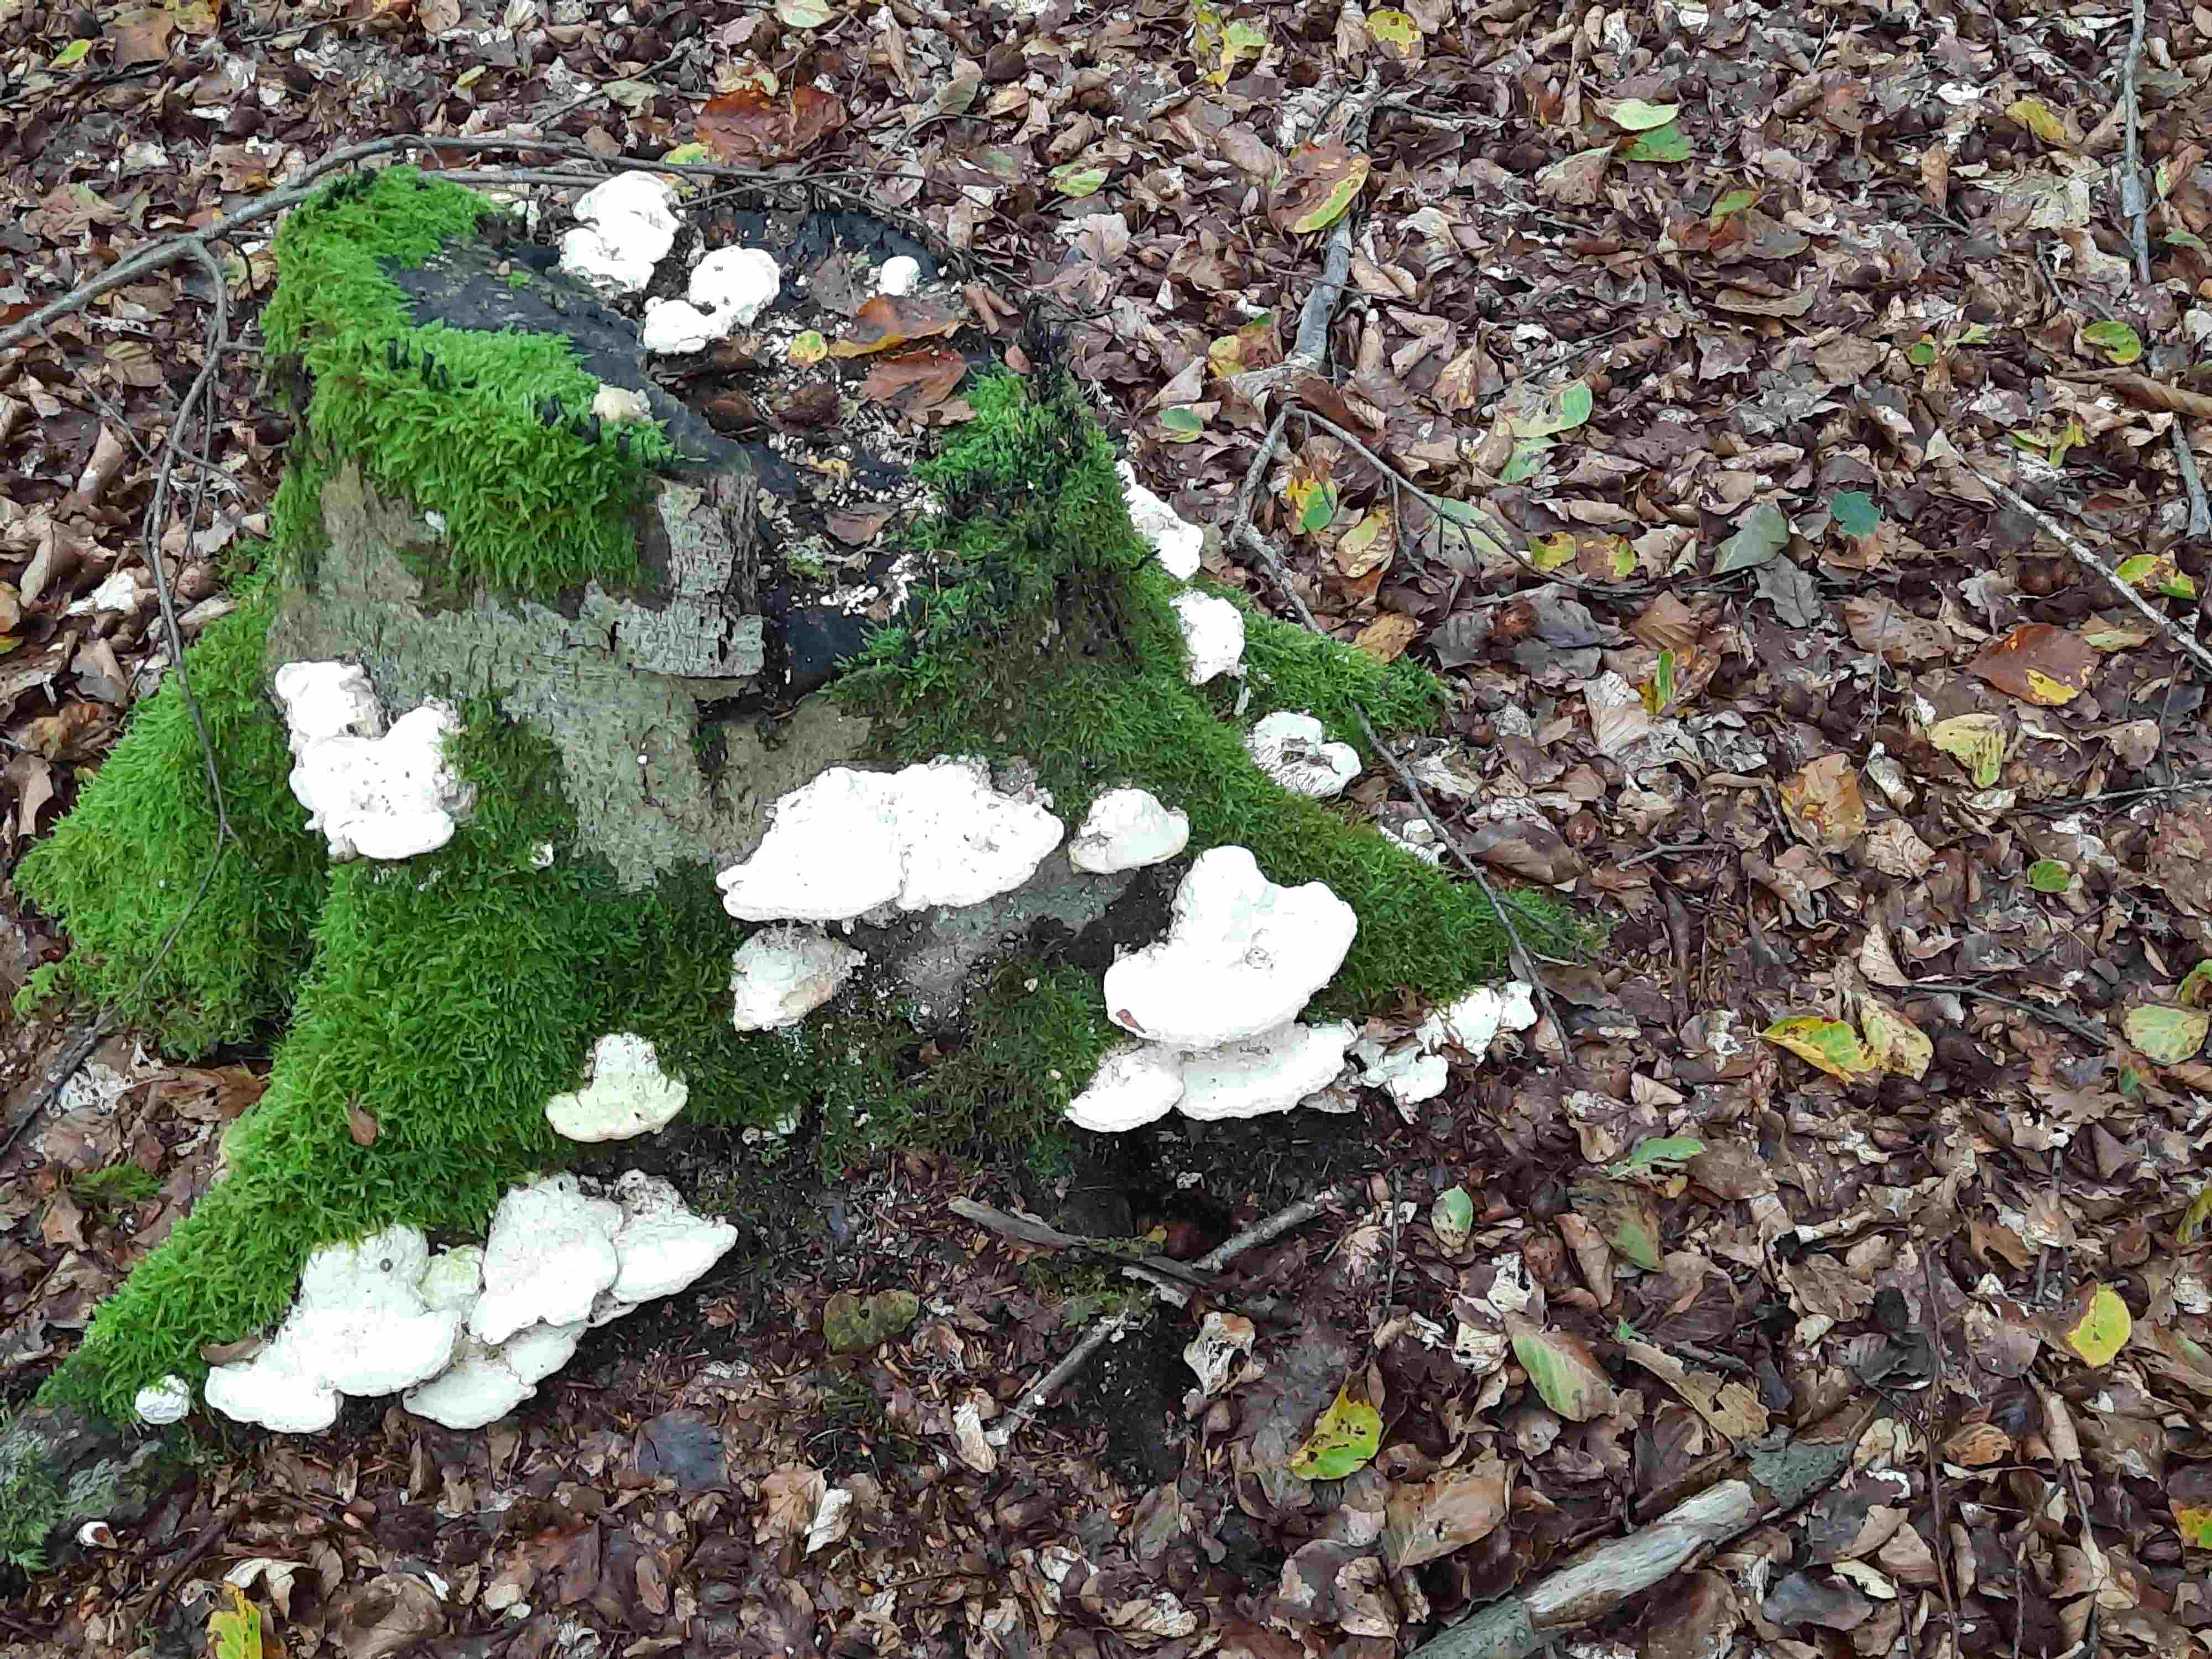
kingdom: Fungi
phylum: Basidiomycota
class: Agaricomycetes
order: Polyporales
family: Polyporaceae
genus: Trametes
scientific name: Trametes gibbosa
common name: puklet læderporesvamp
